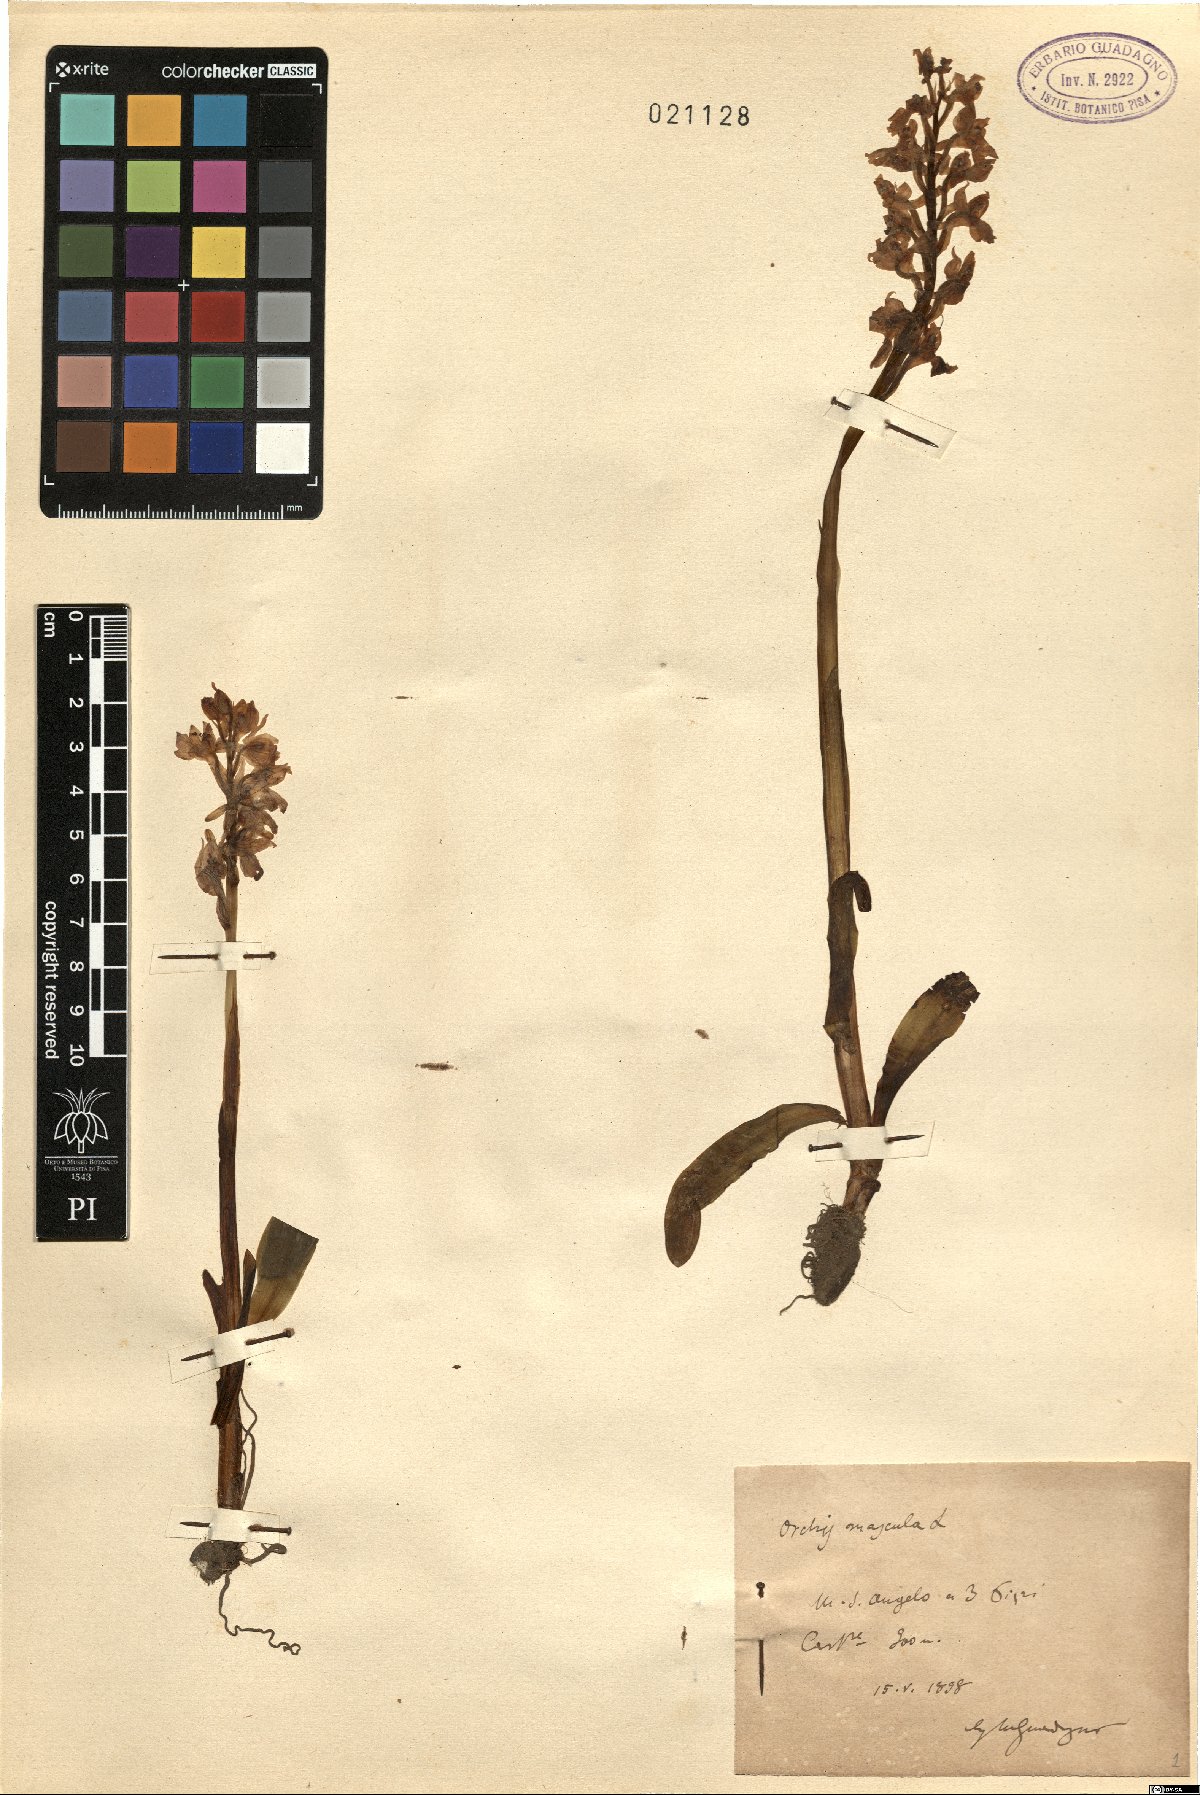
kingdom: Plantae
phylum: Tracheophyta
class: Liliopsida
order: Asparagales
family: Orchidaceae
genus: Orchis
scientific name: Orchis mascula
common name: Early-purple orchid
